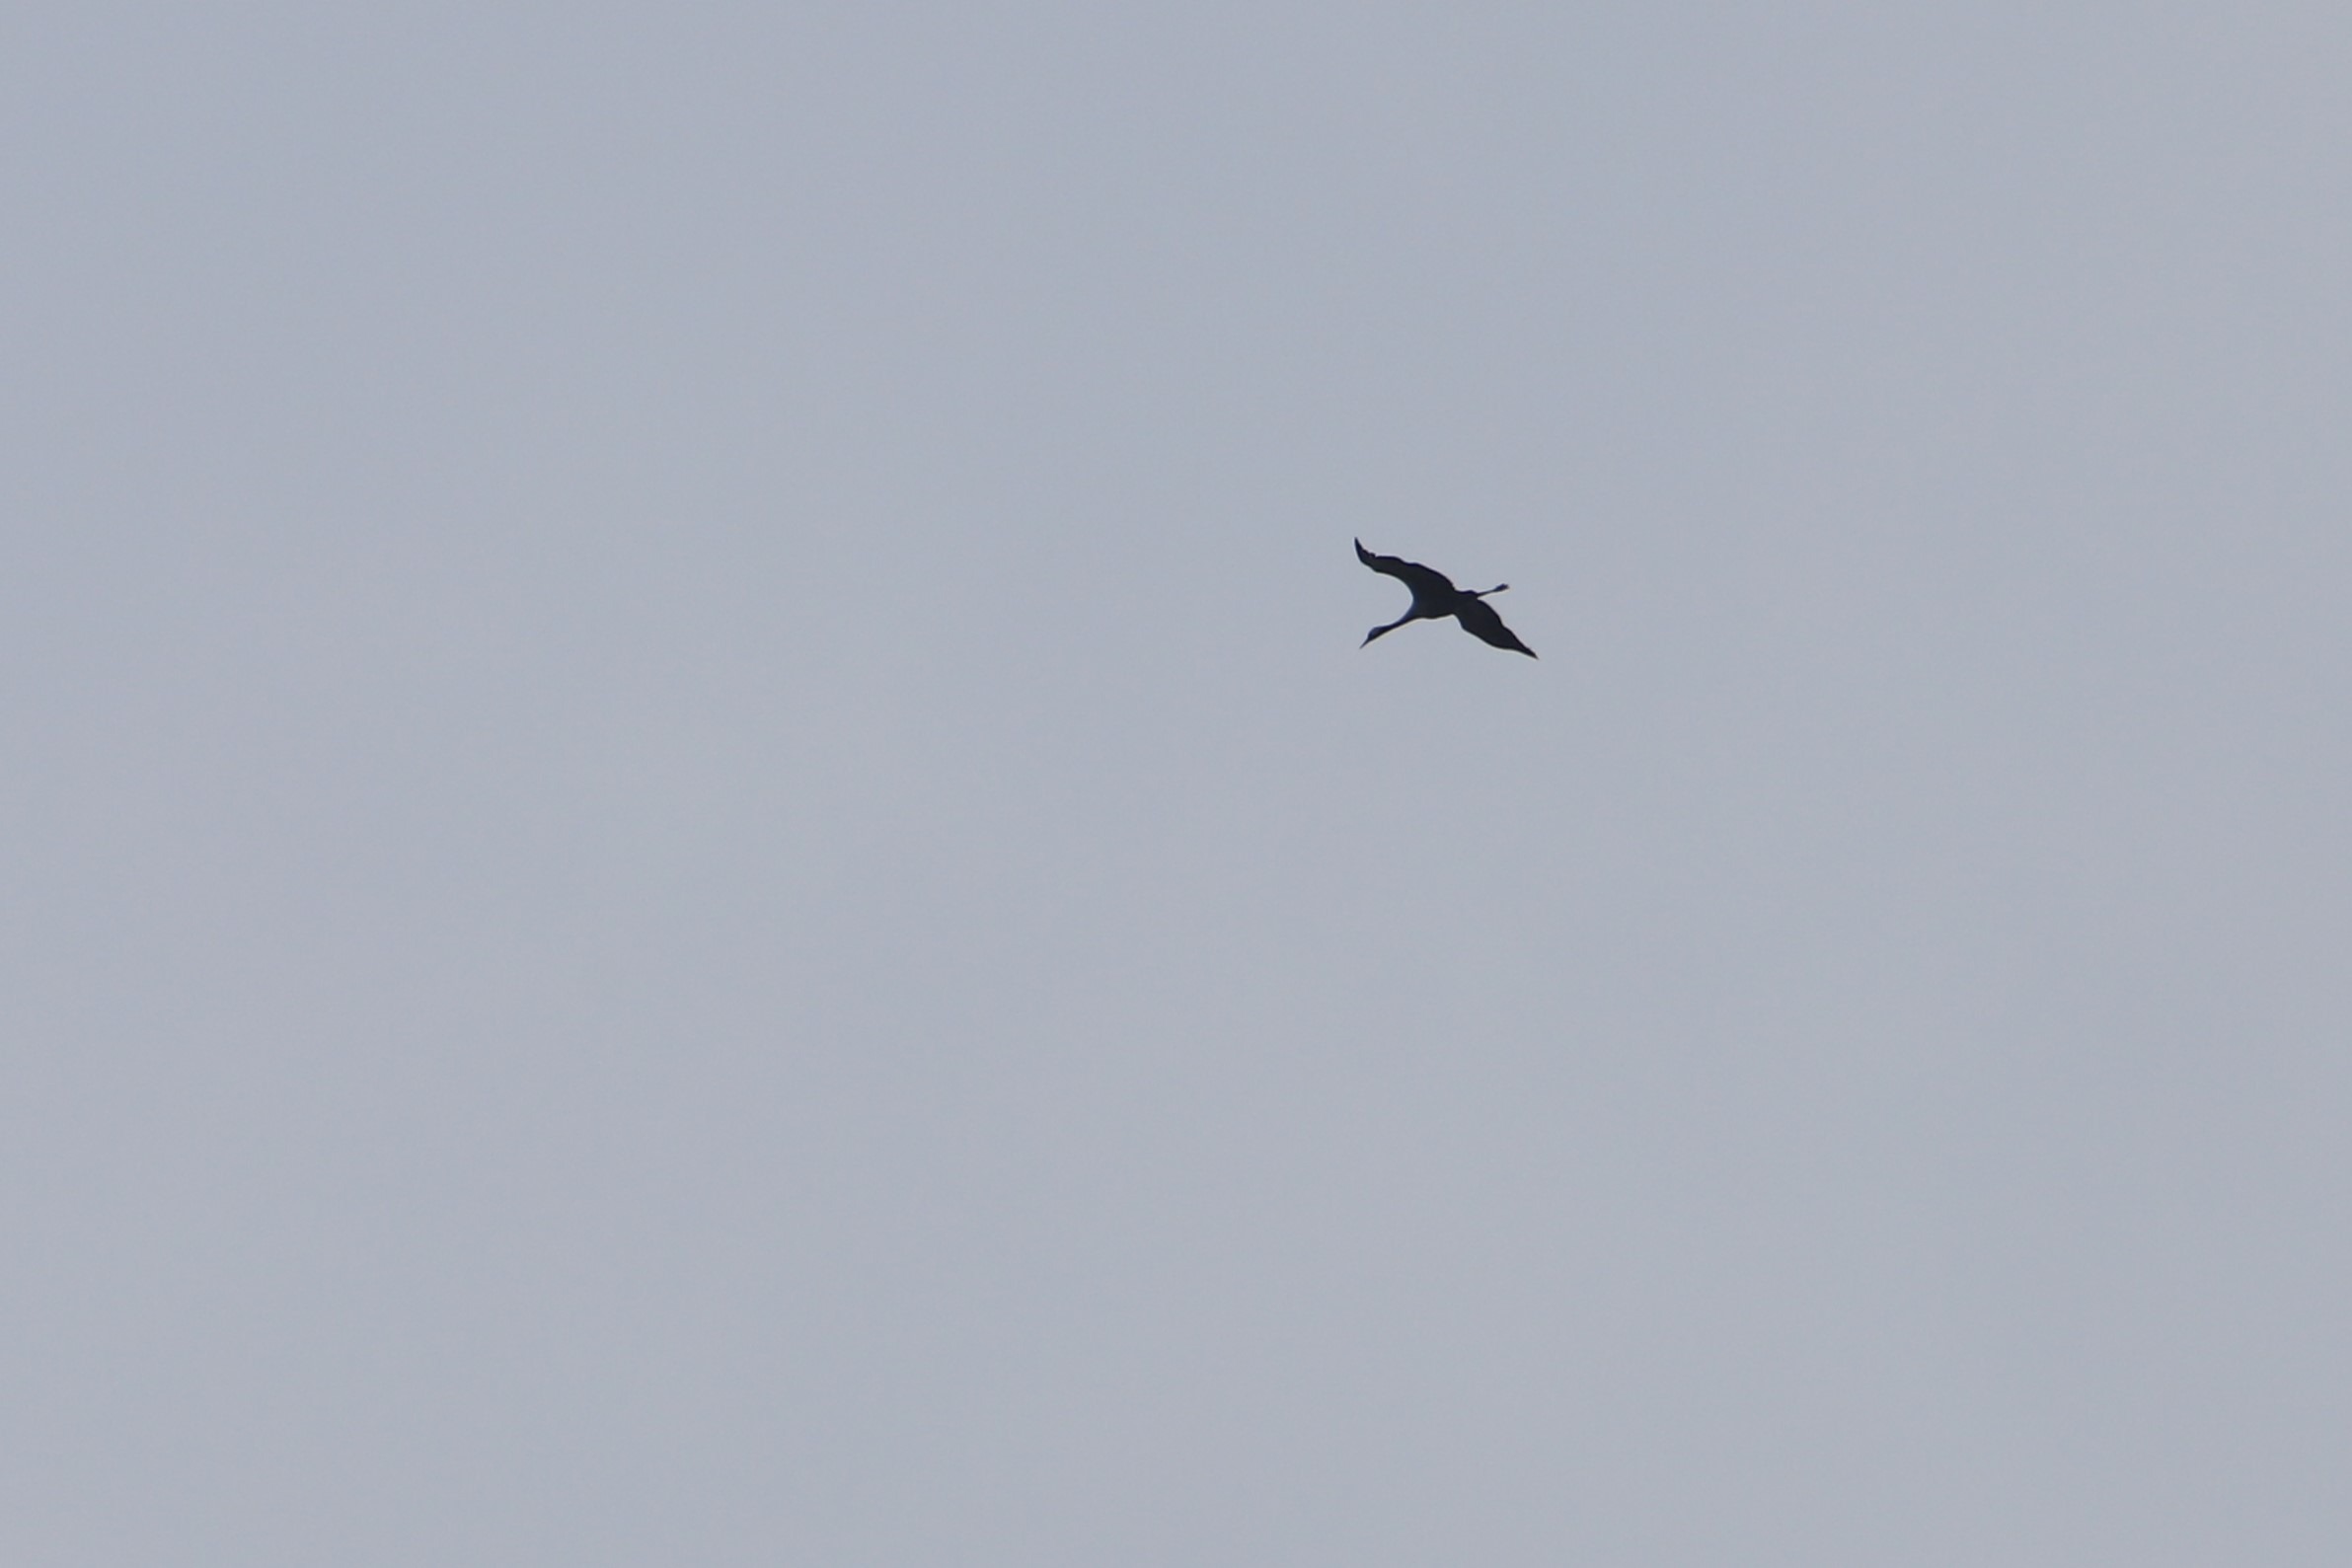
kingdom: Animalia
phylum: Chordata
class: Aves
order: Gruiformes
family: Gruidae
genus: Grus
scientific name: Grus grus
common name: Trane
